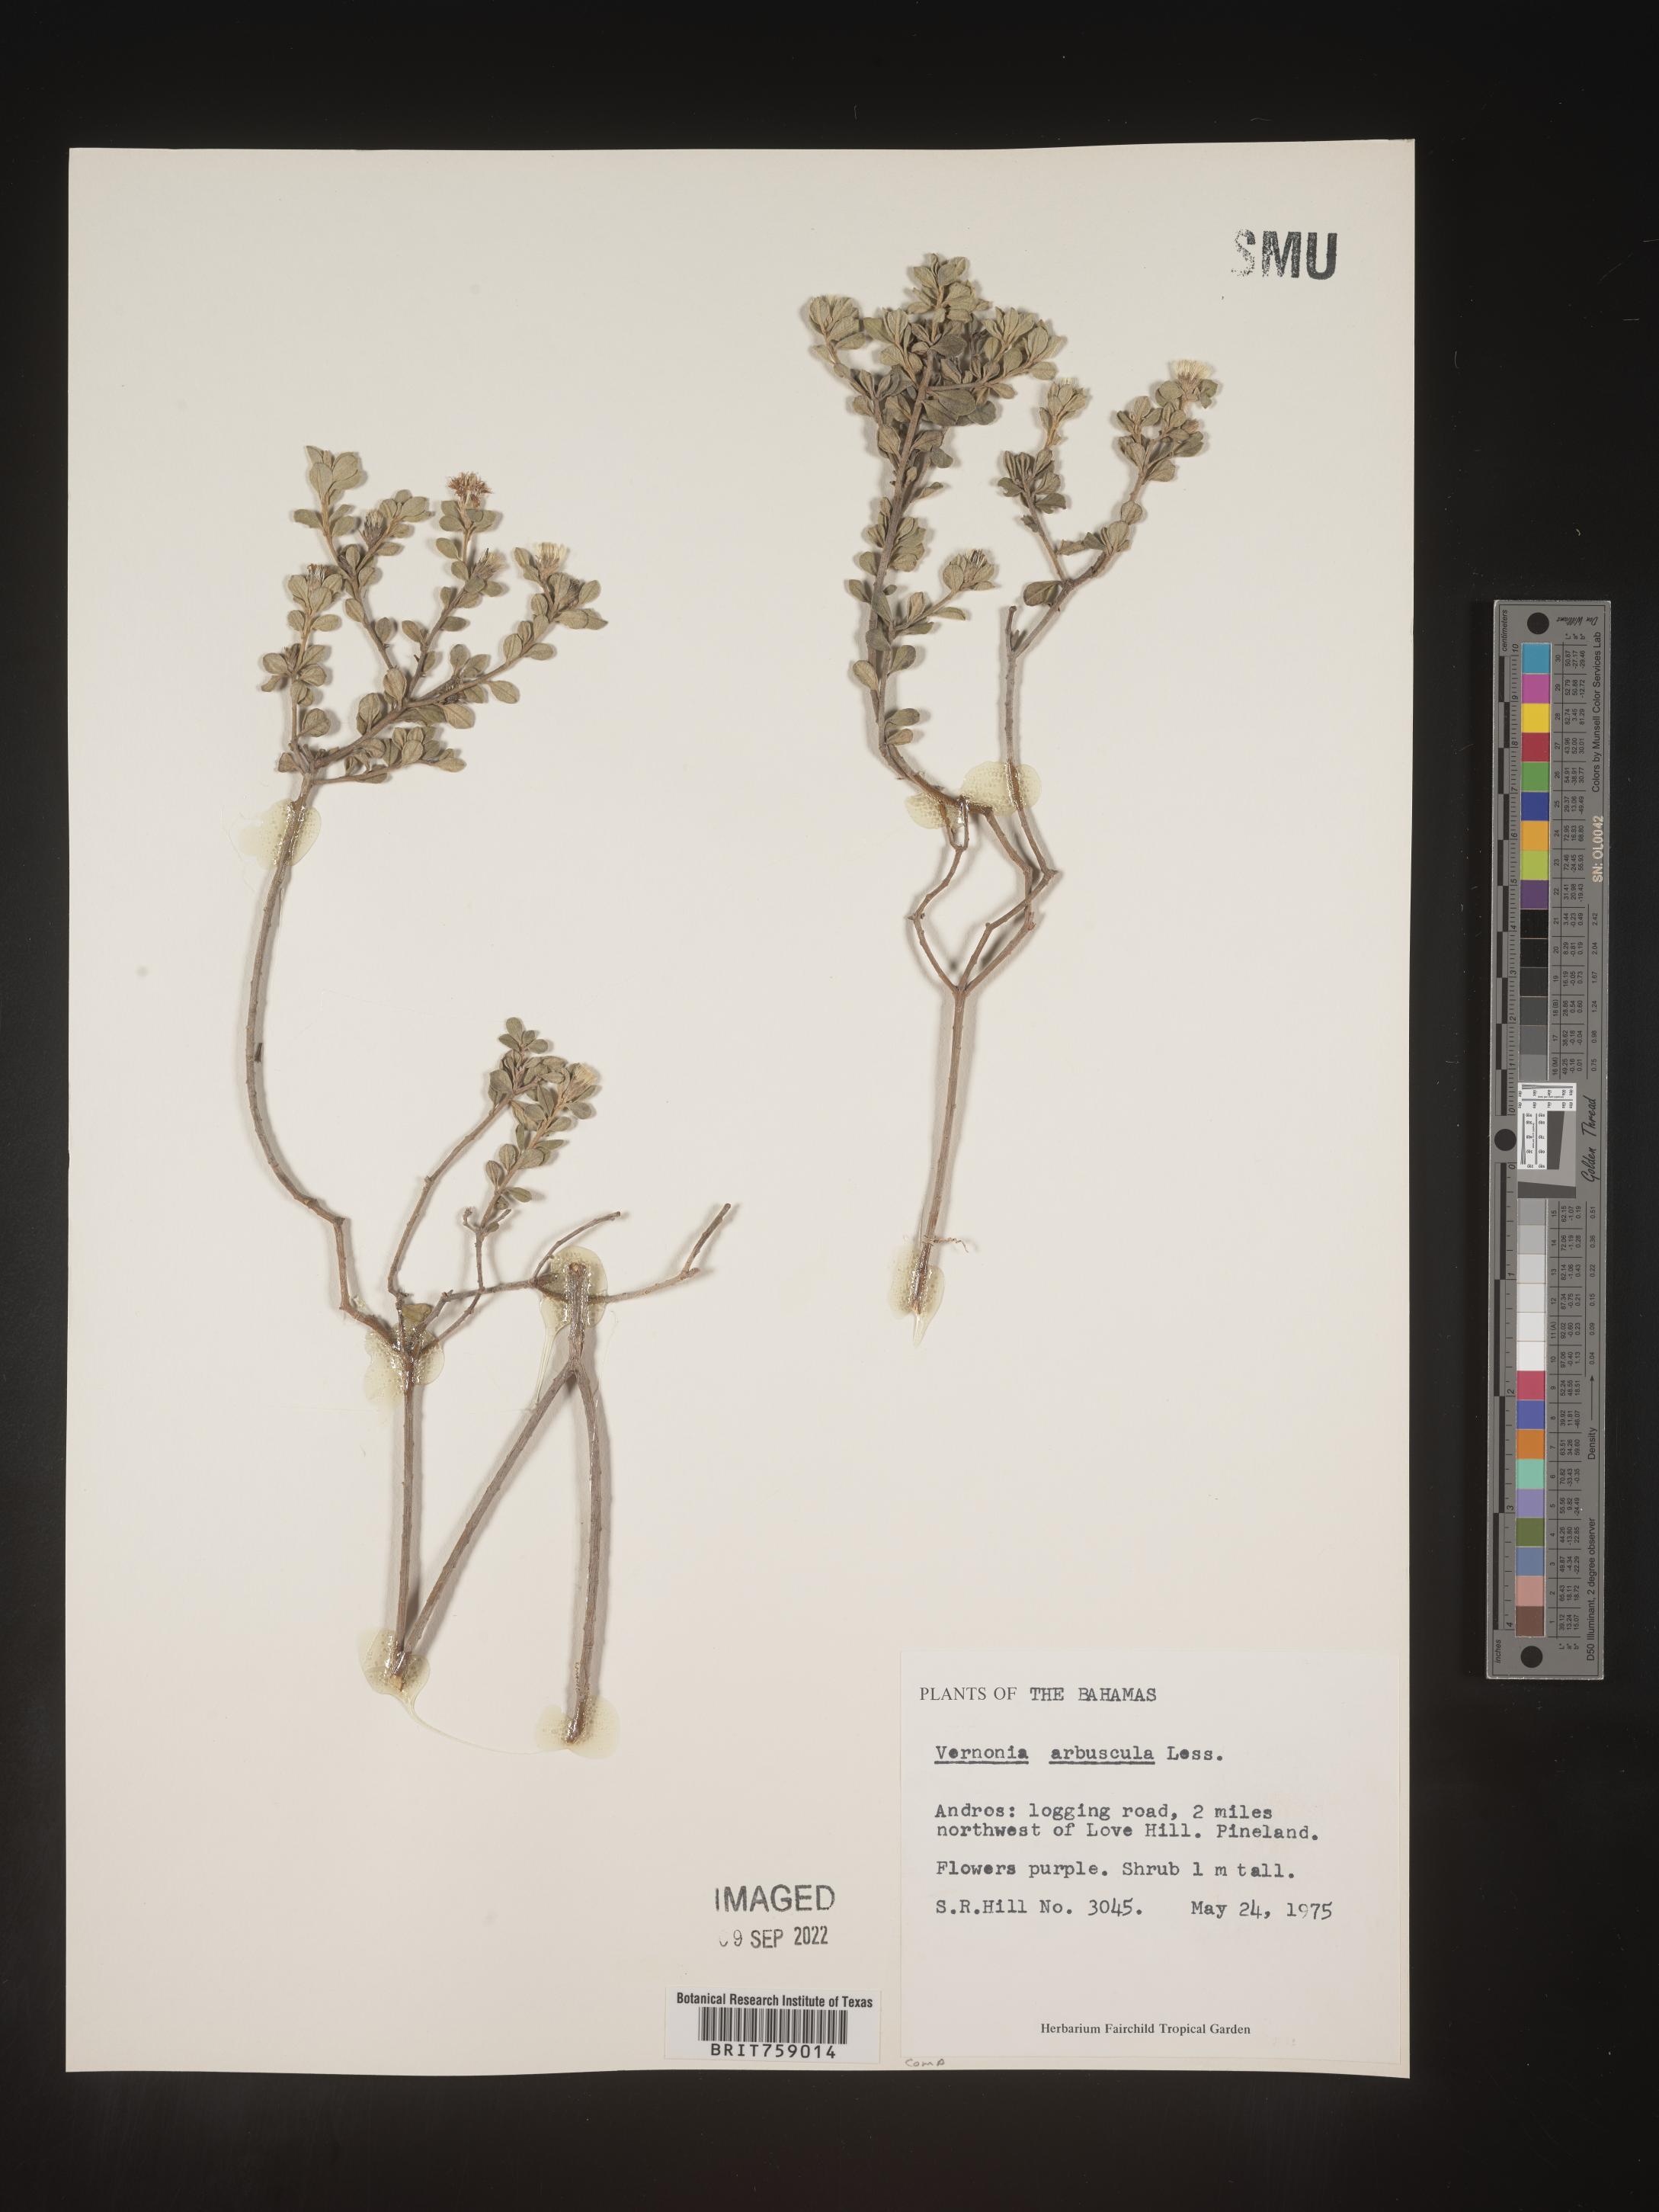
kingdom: Plantae
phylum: Tracheophyta
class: Magnoliopsida
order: Asterales
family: Asteraceae
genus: Vernonia
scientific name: Vernonia
